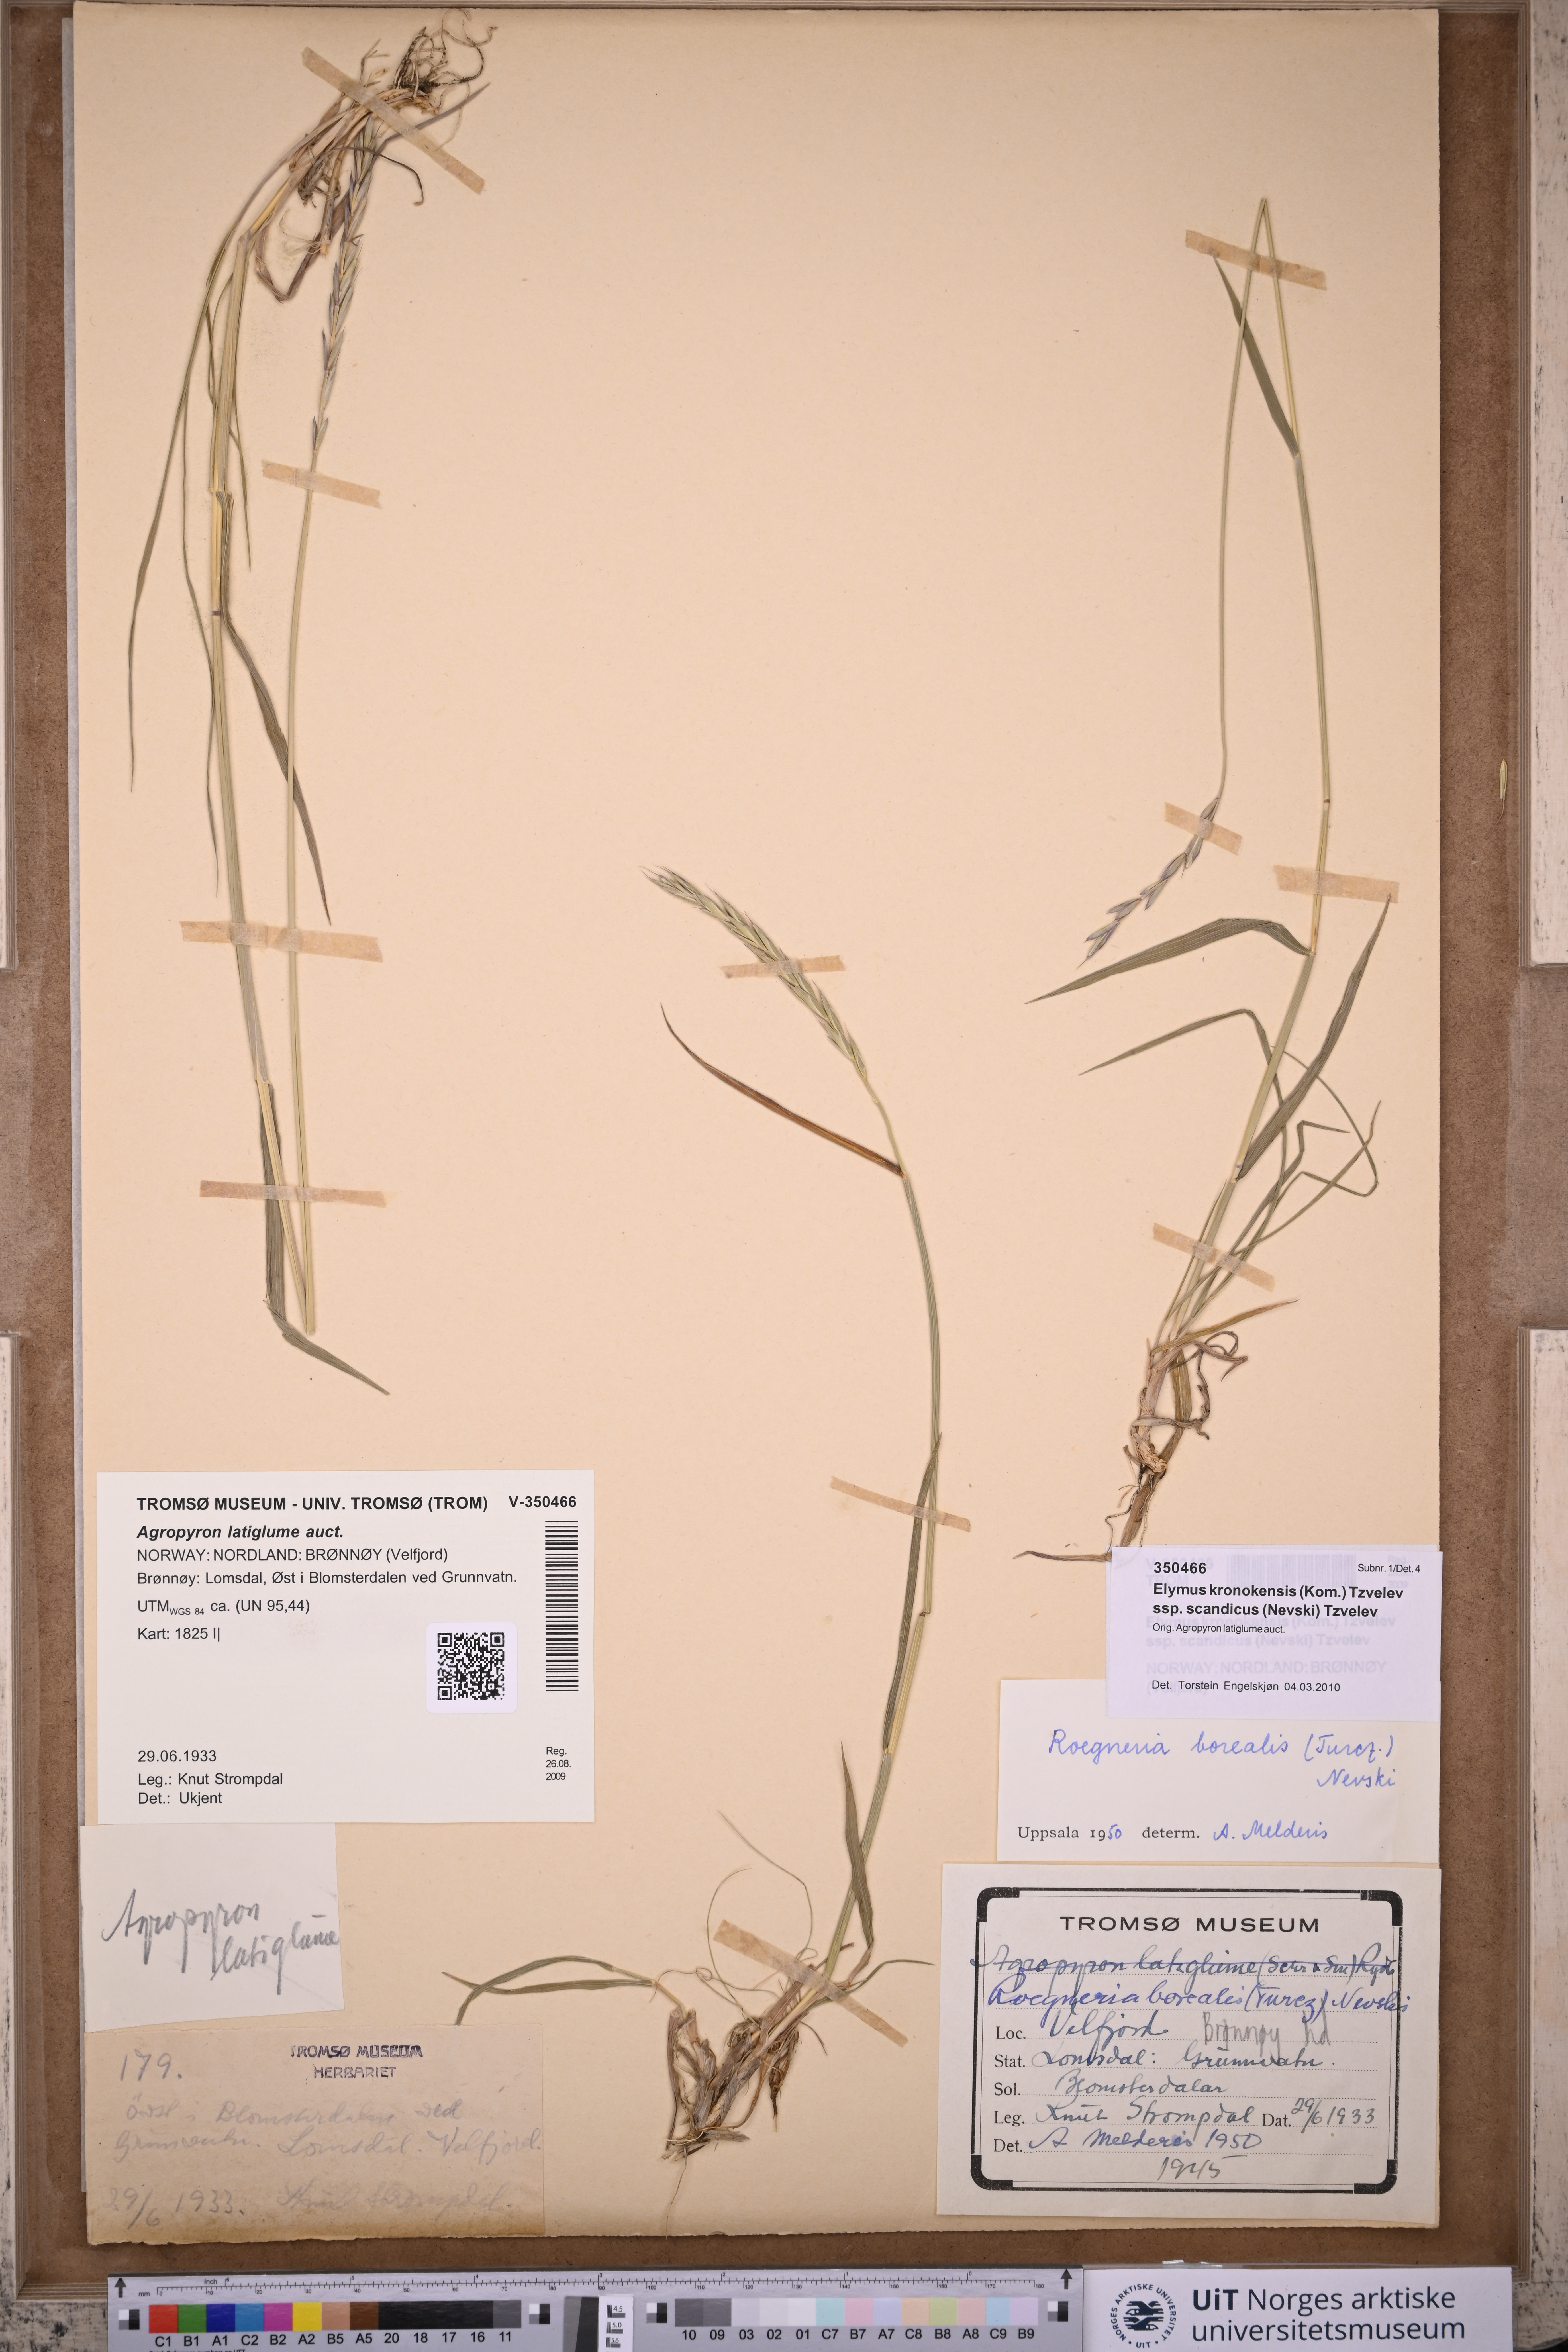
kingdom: Plantae
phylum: Tracheophyta
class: Liliopsida
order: Poales
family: Poaceae
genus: Elymus
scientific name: Elymus macrourus
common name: Northern wheatgrass
